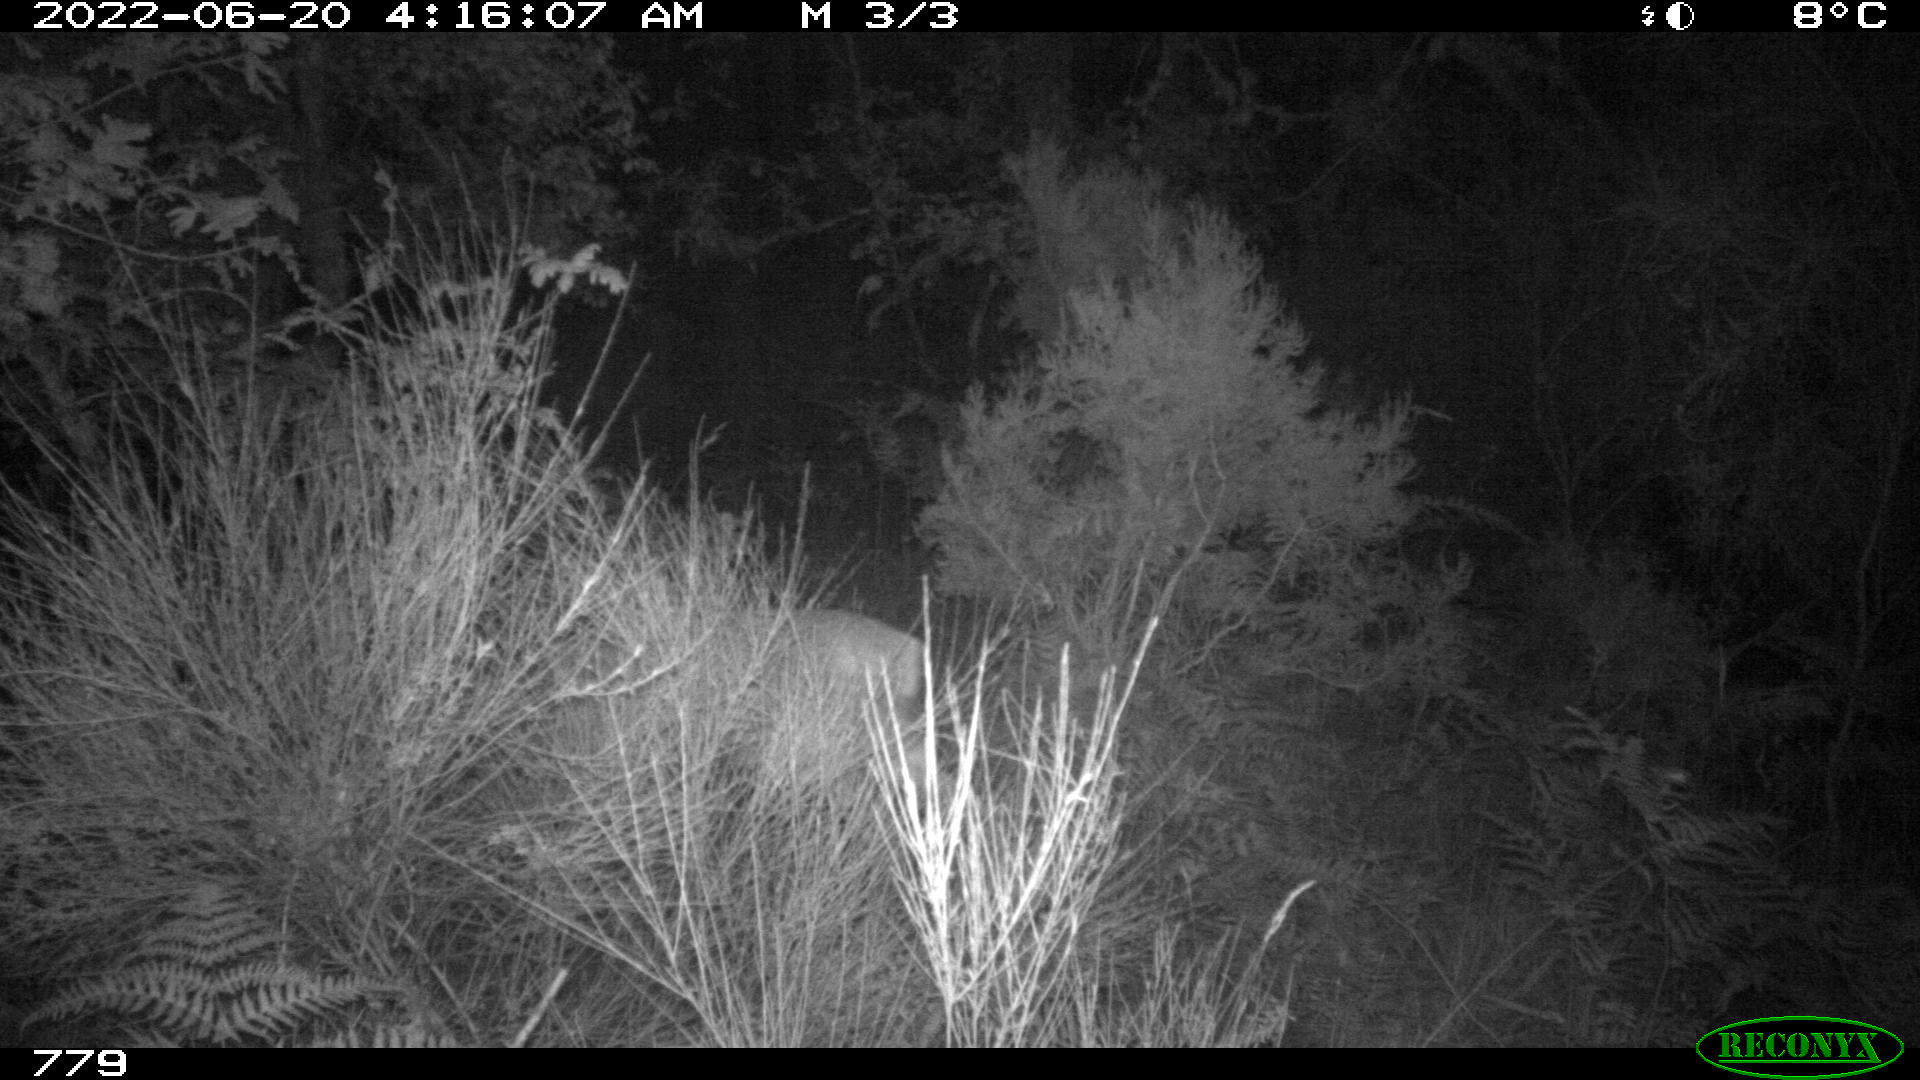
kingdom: Animalia
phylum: Chordata
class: Mammalia
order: Artiodactyla
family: Cervidae
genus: Capreolus
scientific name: Capreolus capreolus
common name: Western roe deer
